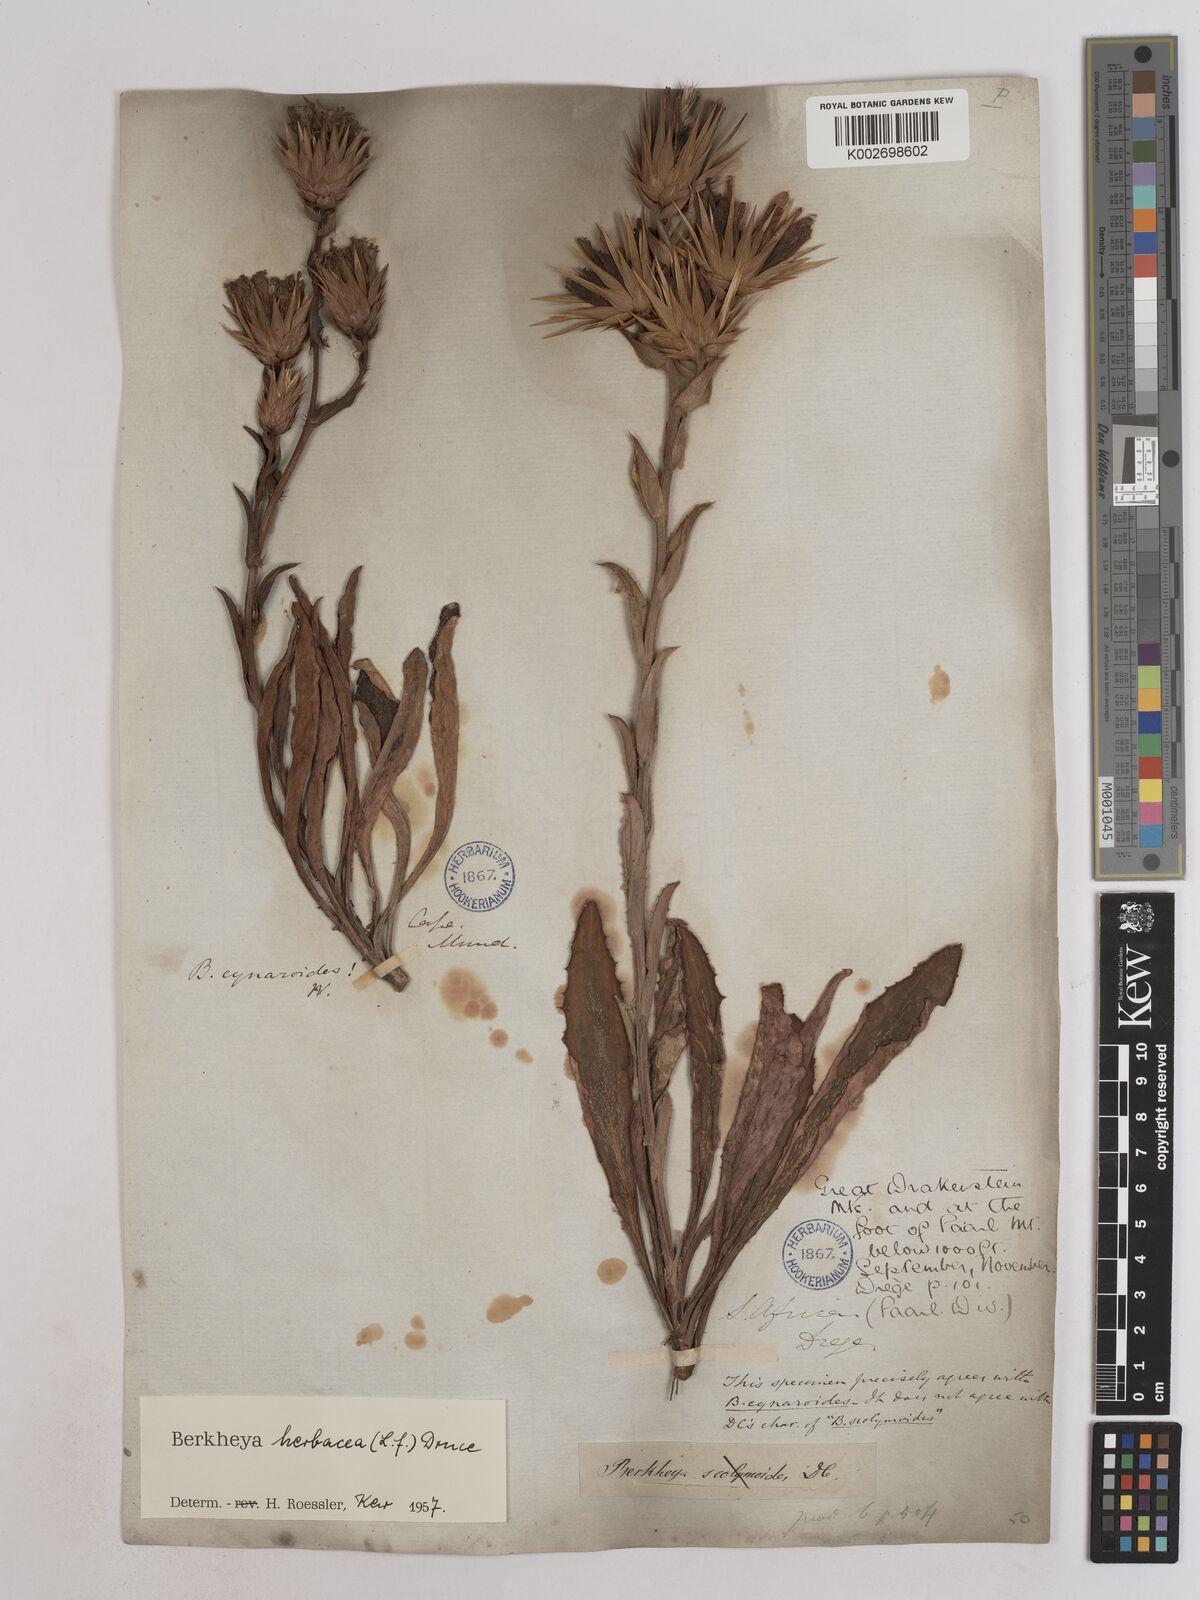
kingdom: Plantae
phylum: Tracheophyta
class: Magnoliopsida
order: Asterales
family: Asteraceae
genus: Berkheya
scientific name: Berkheya herbacea
